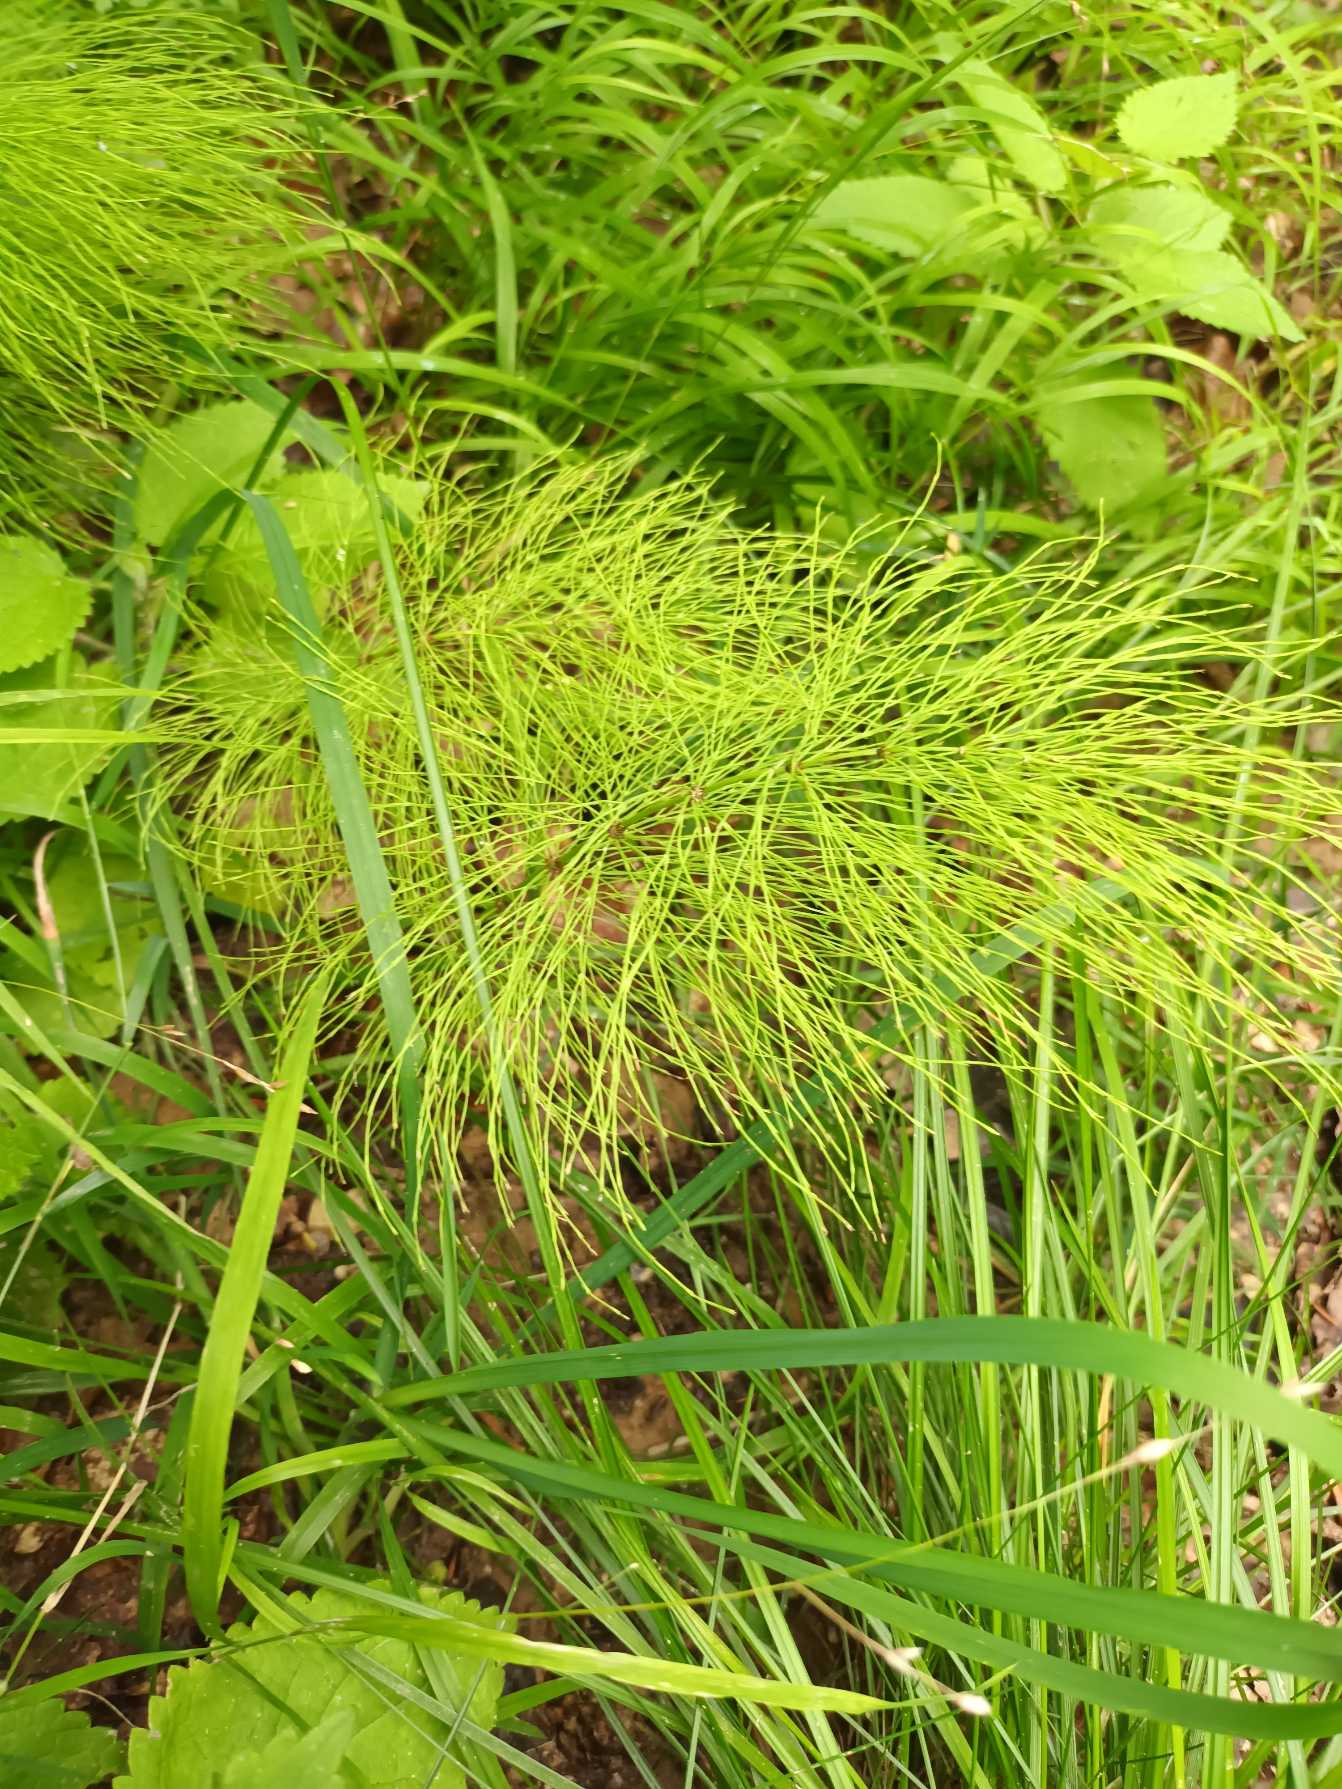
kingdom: Plantae
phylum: Tracheophyta
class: Polypodiopsida
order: Equisetales
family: Equisetaceae
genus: Equisetum
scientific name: Equisetum sylvaticum
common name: Skov-padderok
